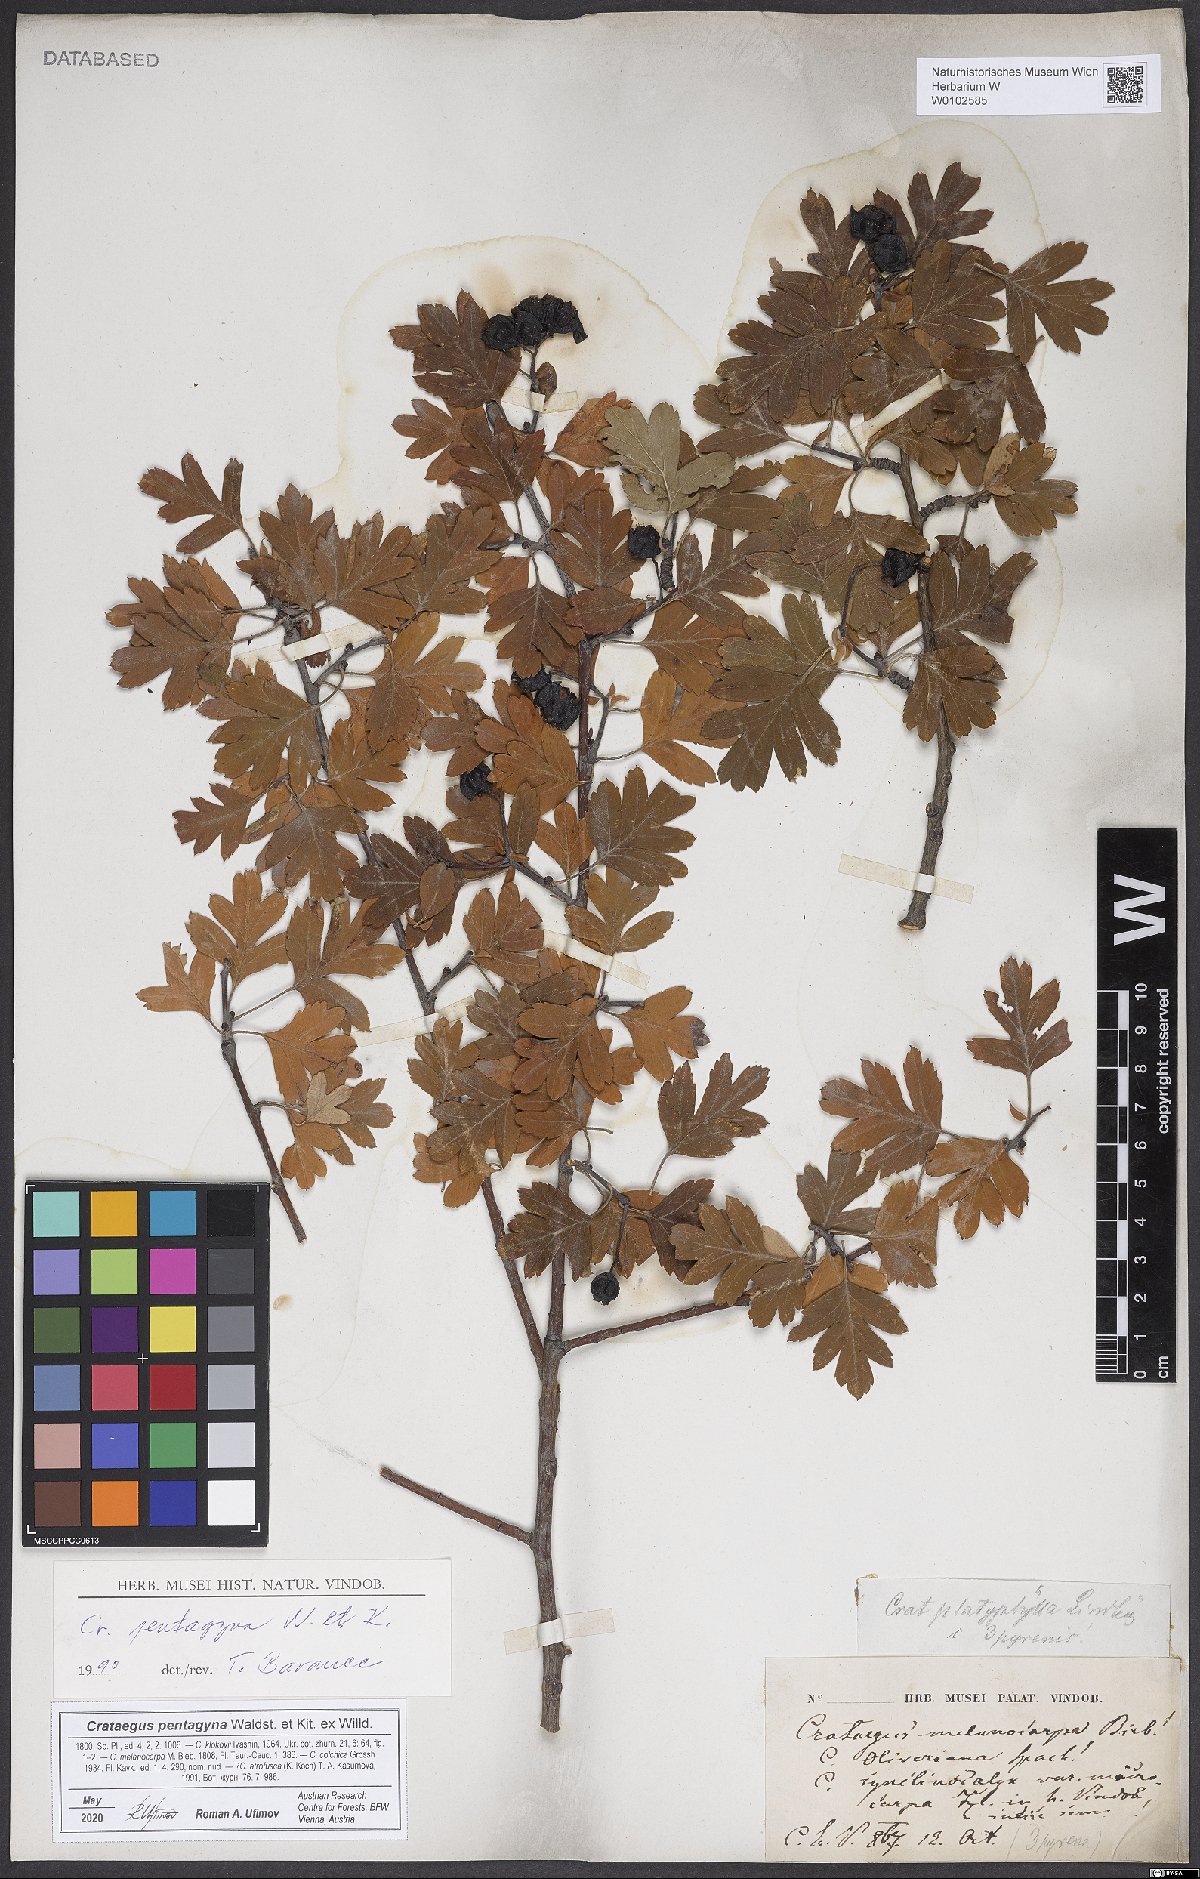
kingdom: Plantae
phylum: Tracheophyta
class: Magnoliopsida
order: Rosales
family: Rosaceae
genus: Crataegus
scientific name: Crataegus pentagyna
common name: Small-flowered black hawthorn
